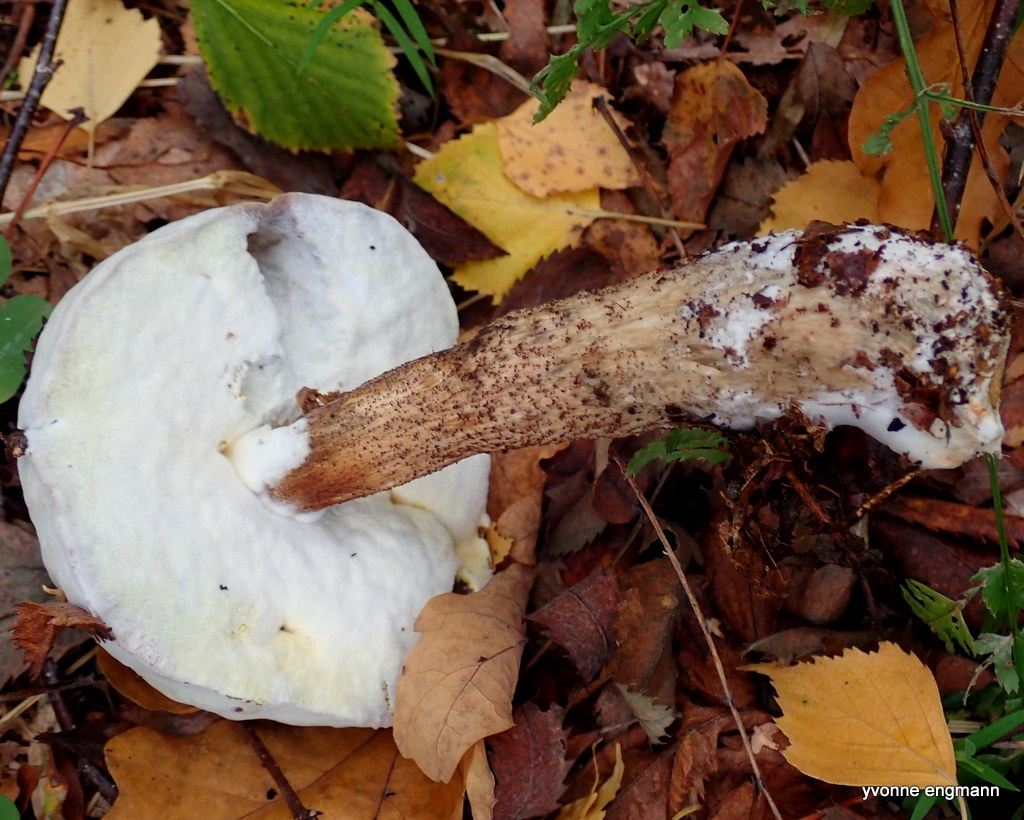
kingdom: Fungi
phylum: Ascomycota
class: Sordariomycetes
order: Hypocreales
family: Hypocreaceae
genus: Sepedonium
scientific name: Sepedonium
